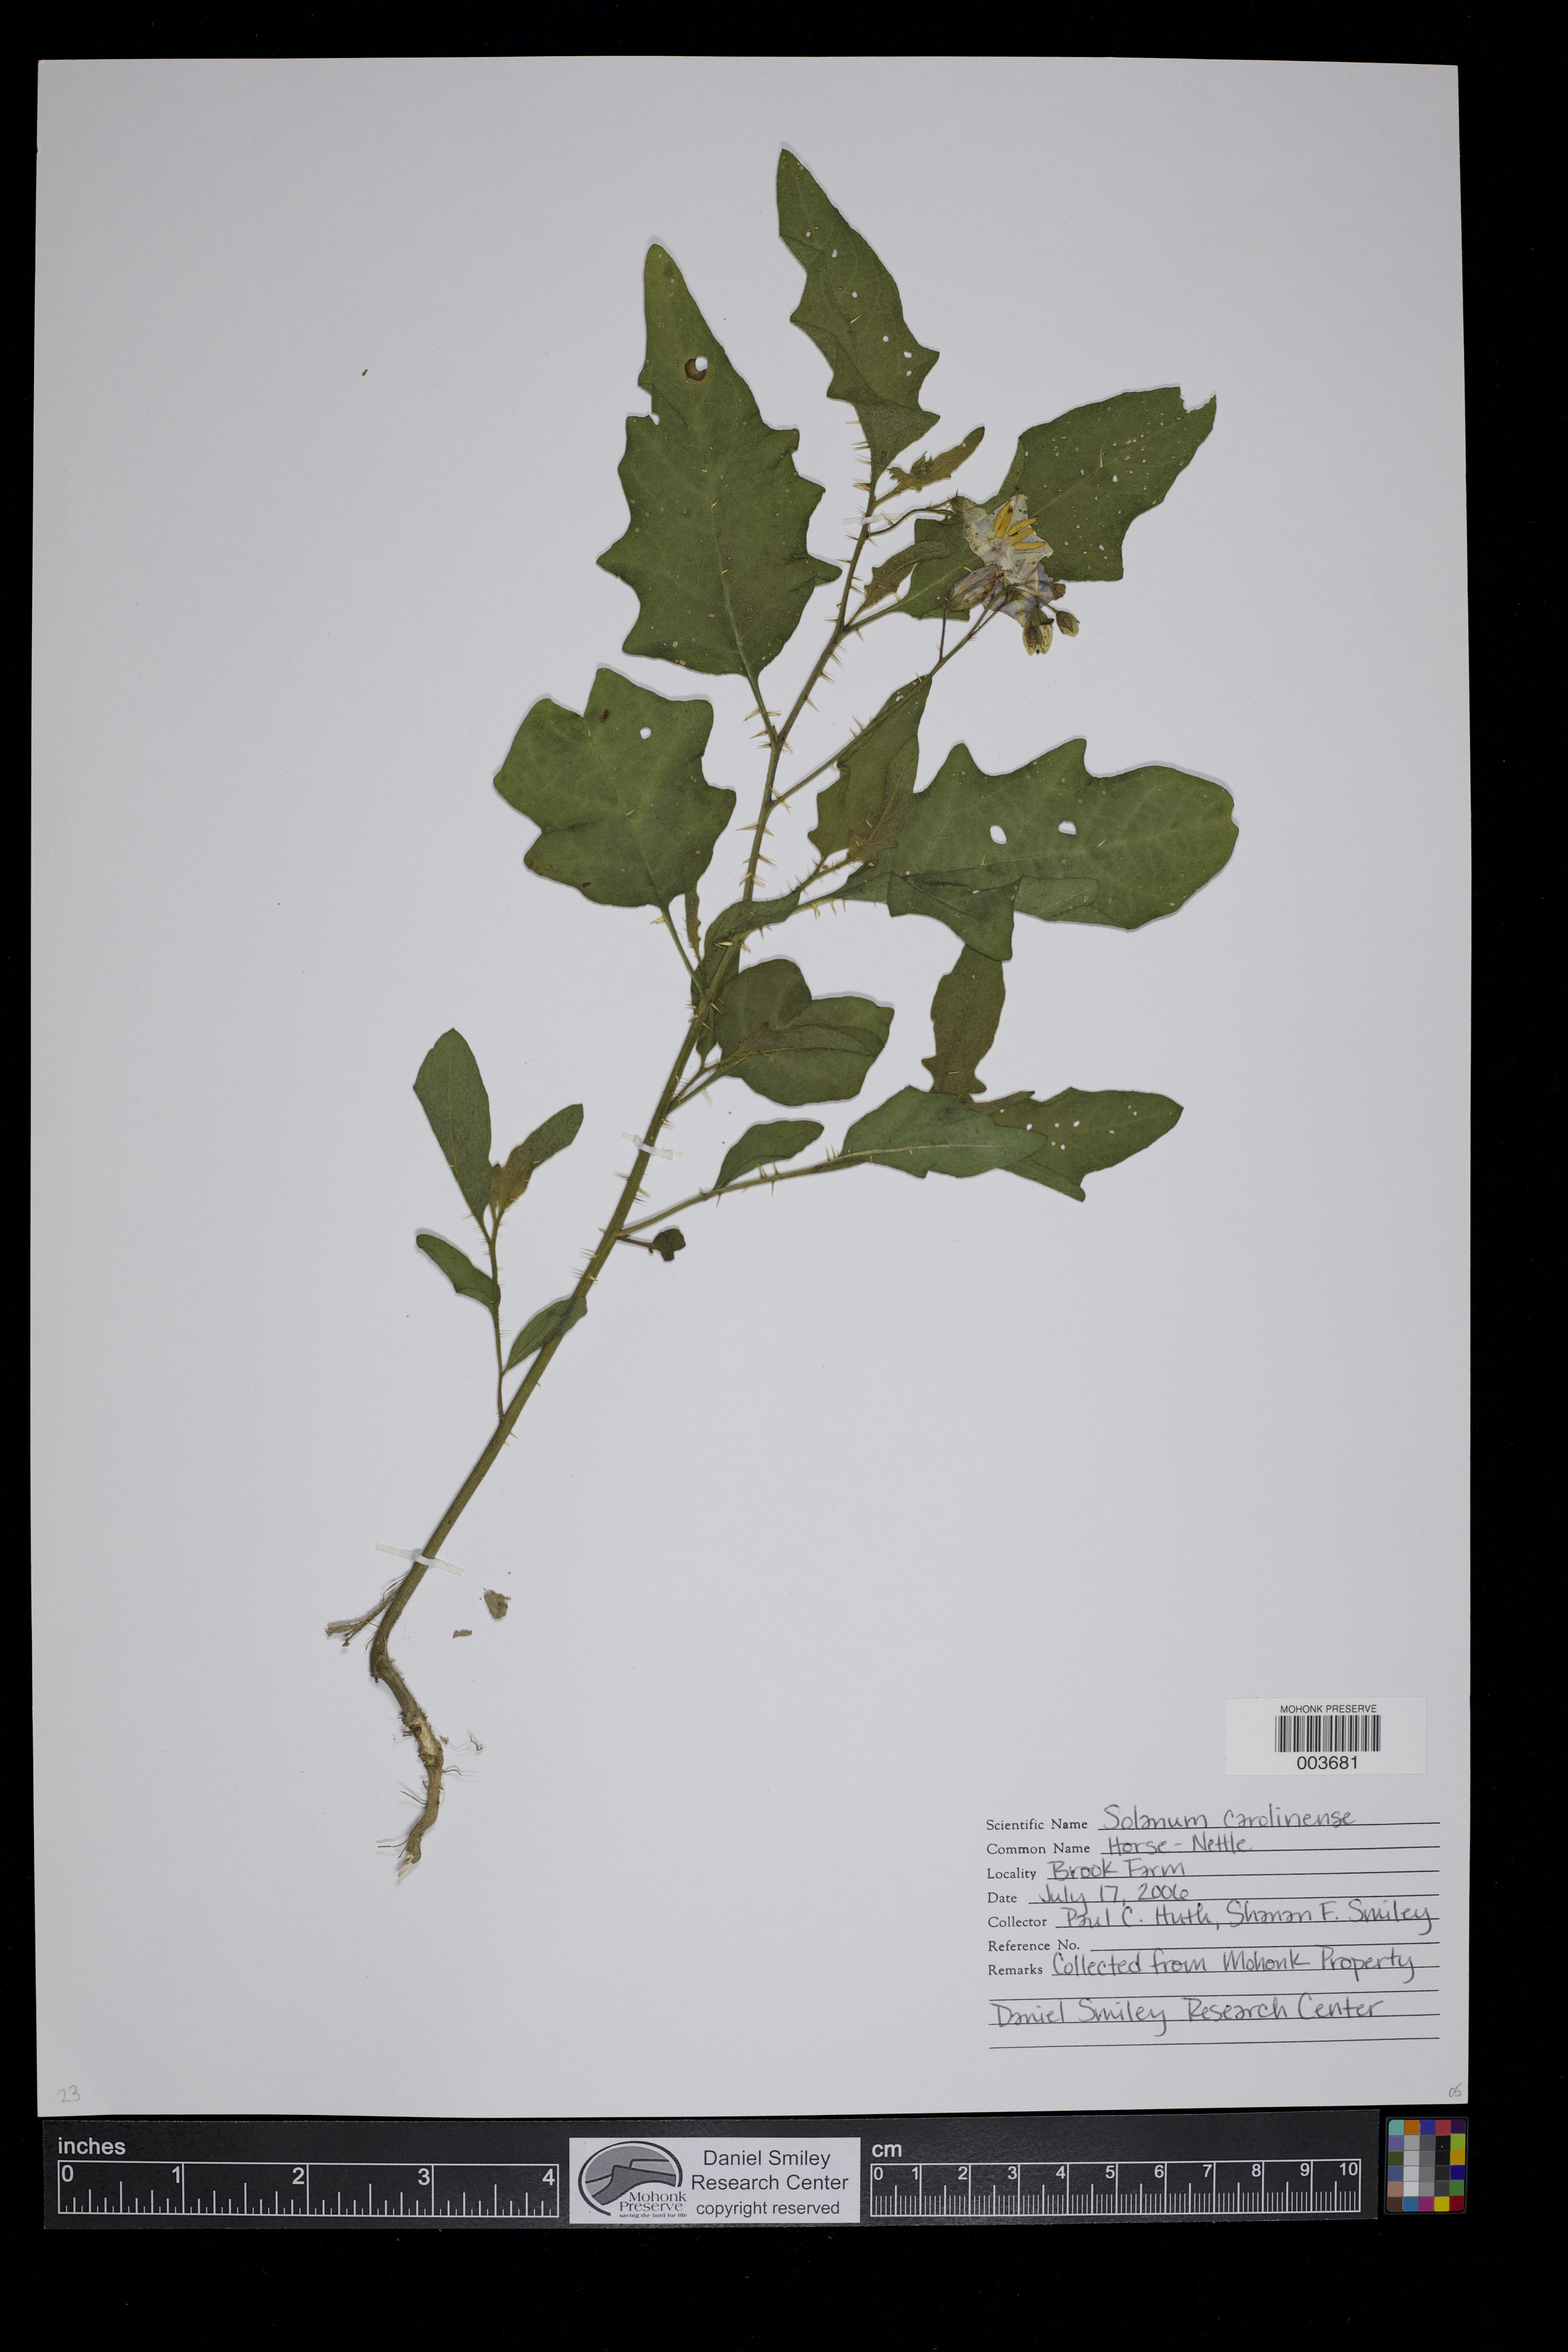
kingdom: Plantae
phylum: Tracheophyta
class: Magnoliopsida
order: Solanales
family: Solanaceae
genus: Solanum
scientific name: Solanum carolinense
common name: Horse-nettle
